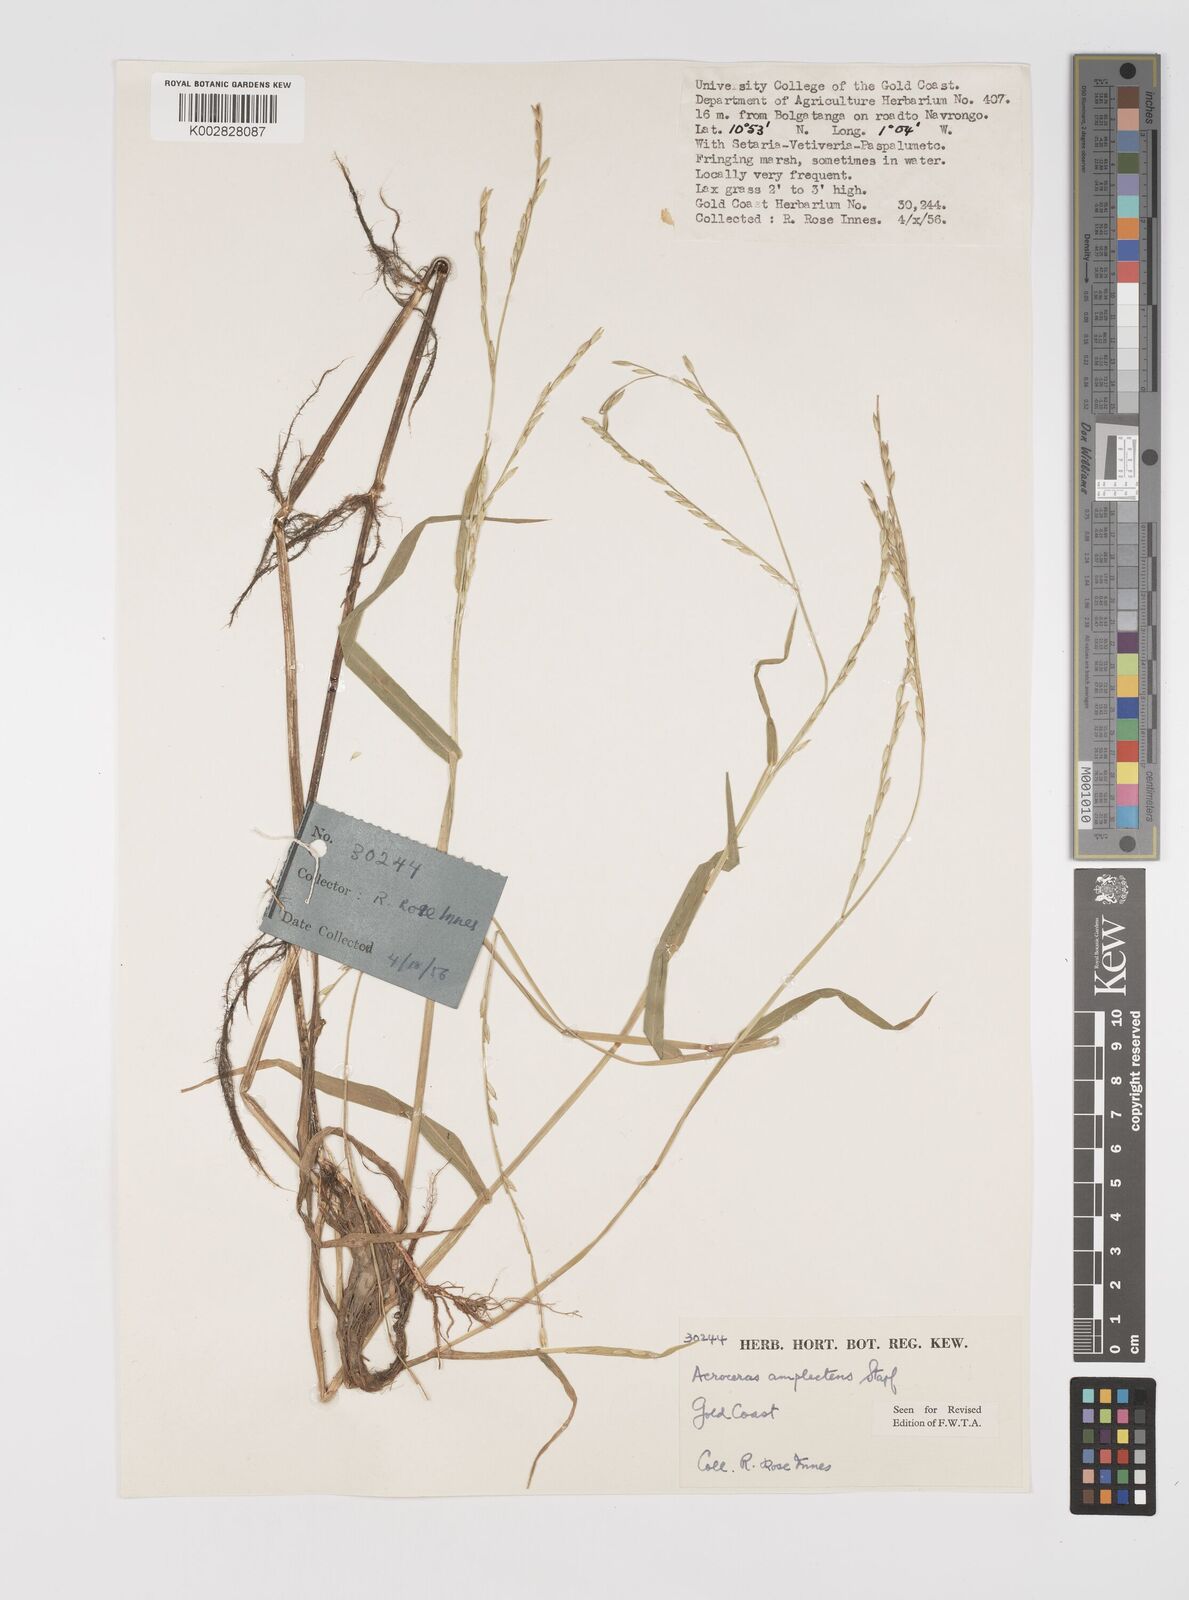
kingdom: Plantae
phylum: Tracheophyta
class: Liliopsida
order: Poales
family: Poaceae
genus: Acroceras
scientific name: Acroceras amplectens
